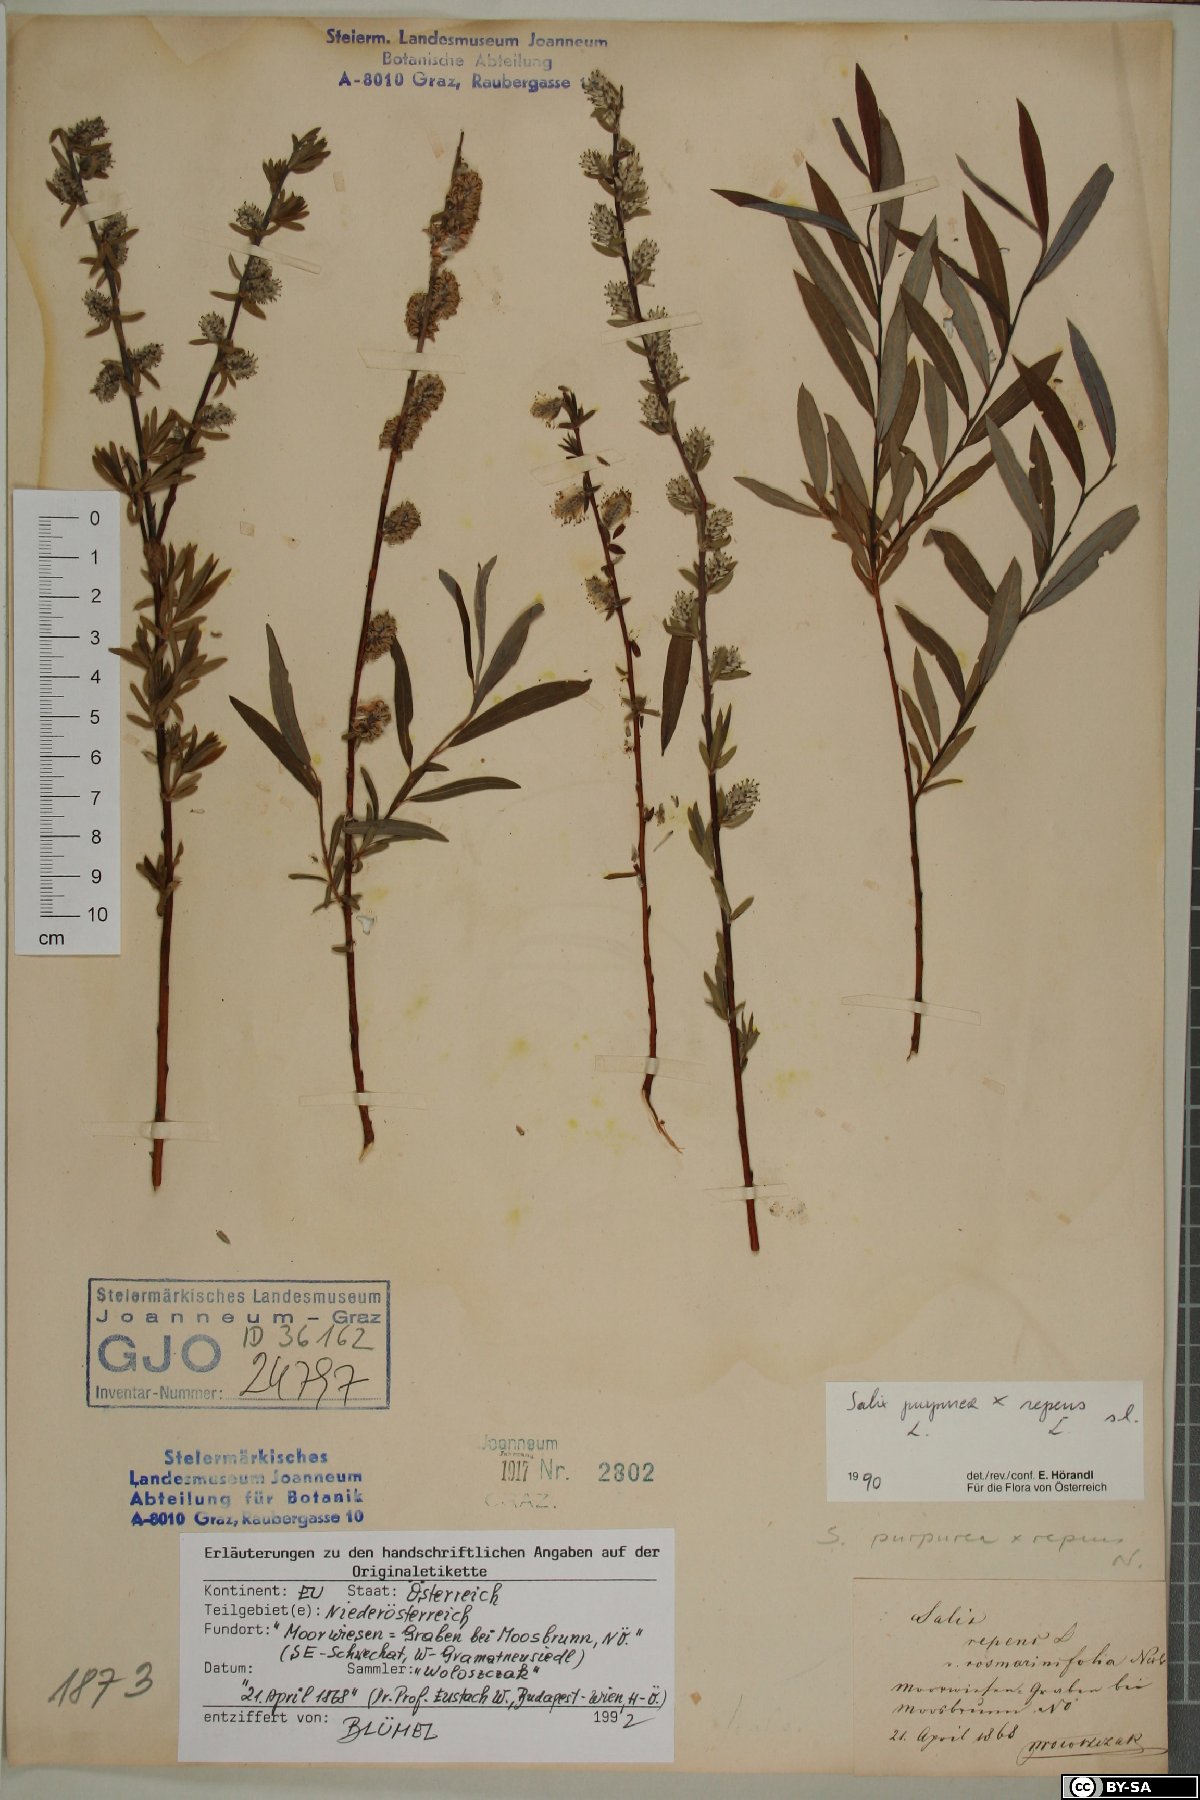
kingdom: Plantae
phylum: Tracheophyta
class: Magnoliopsida
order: Malpighiales
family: Salicaceae
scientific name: Salicaceae
